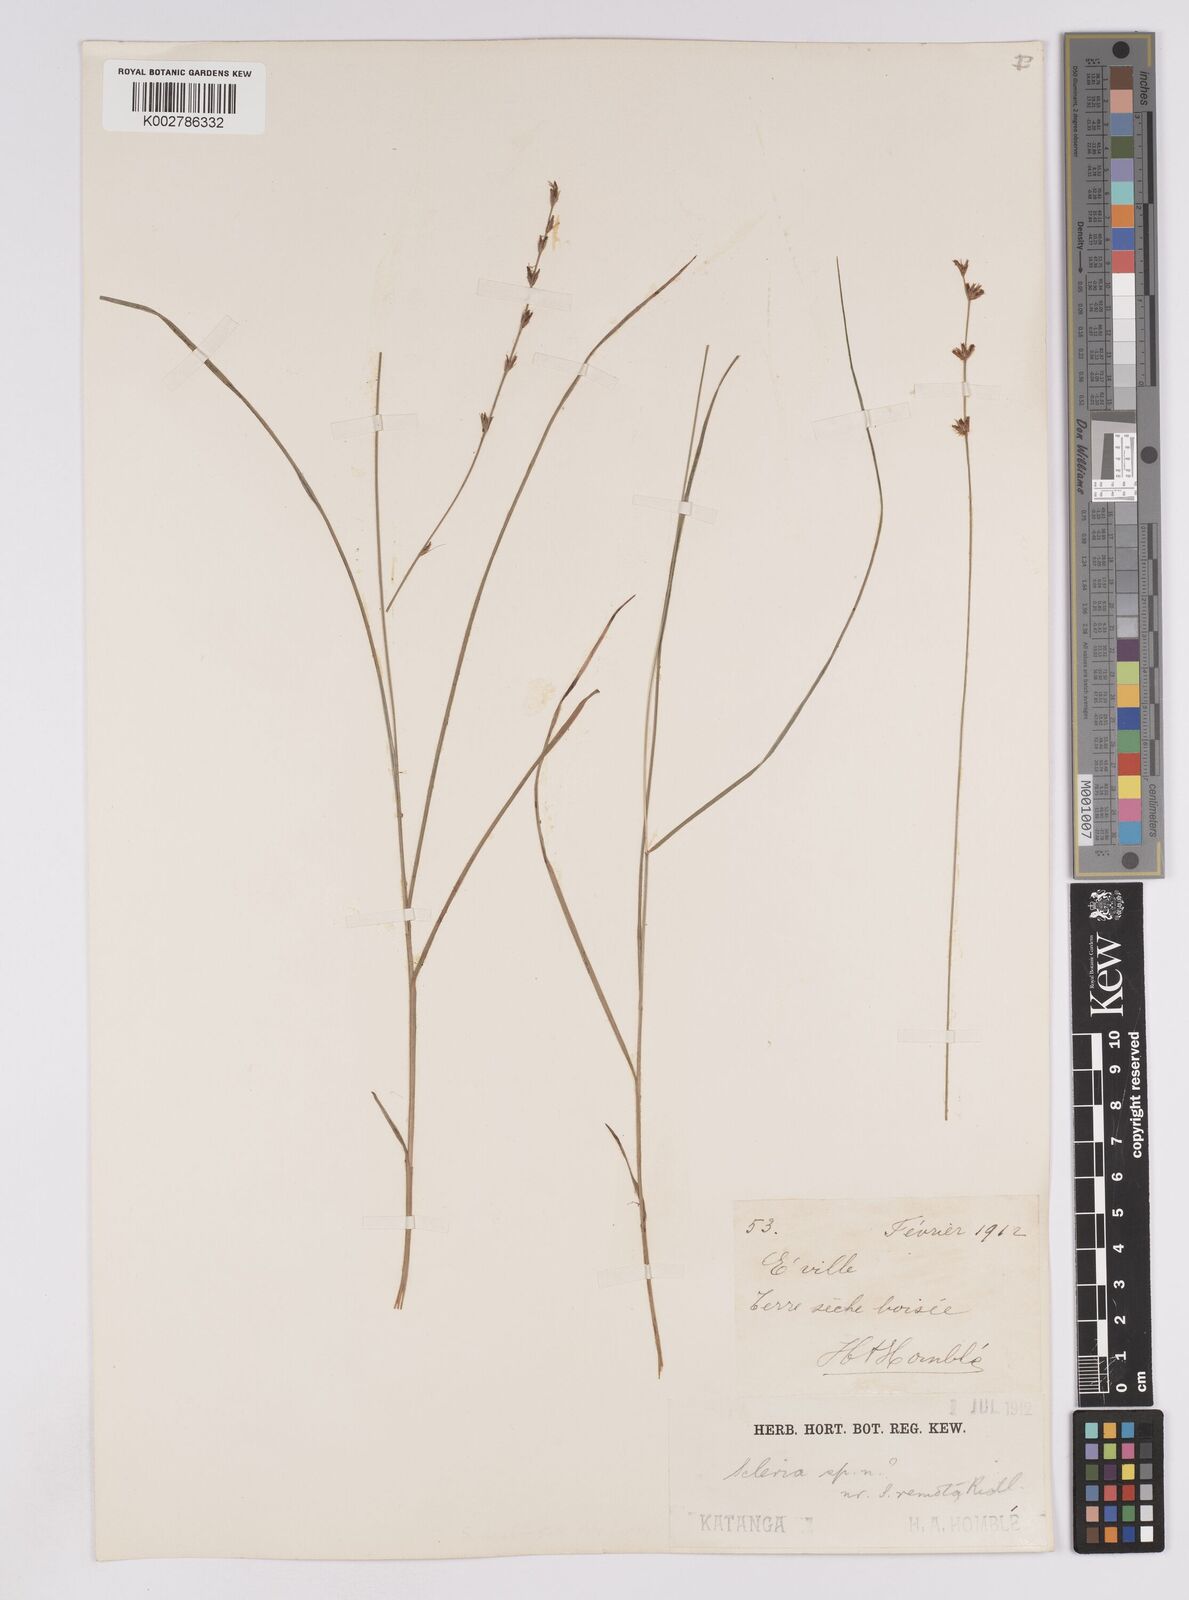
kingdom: Plantae
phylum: Tracheophyta
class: Liliopsida
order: Poales
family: Cyperaceae
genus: Scleria
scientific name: Scleria bulbifera
